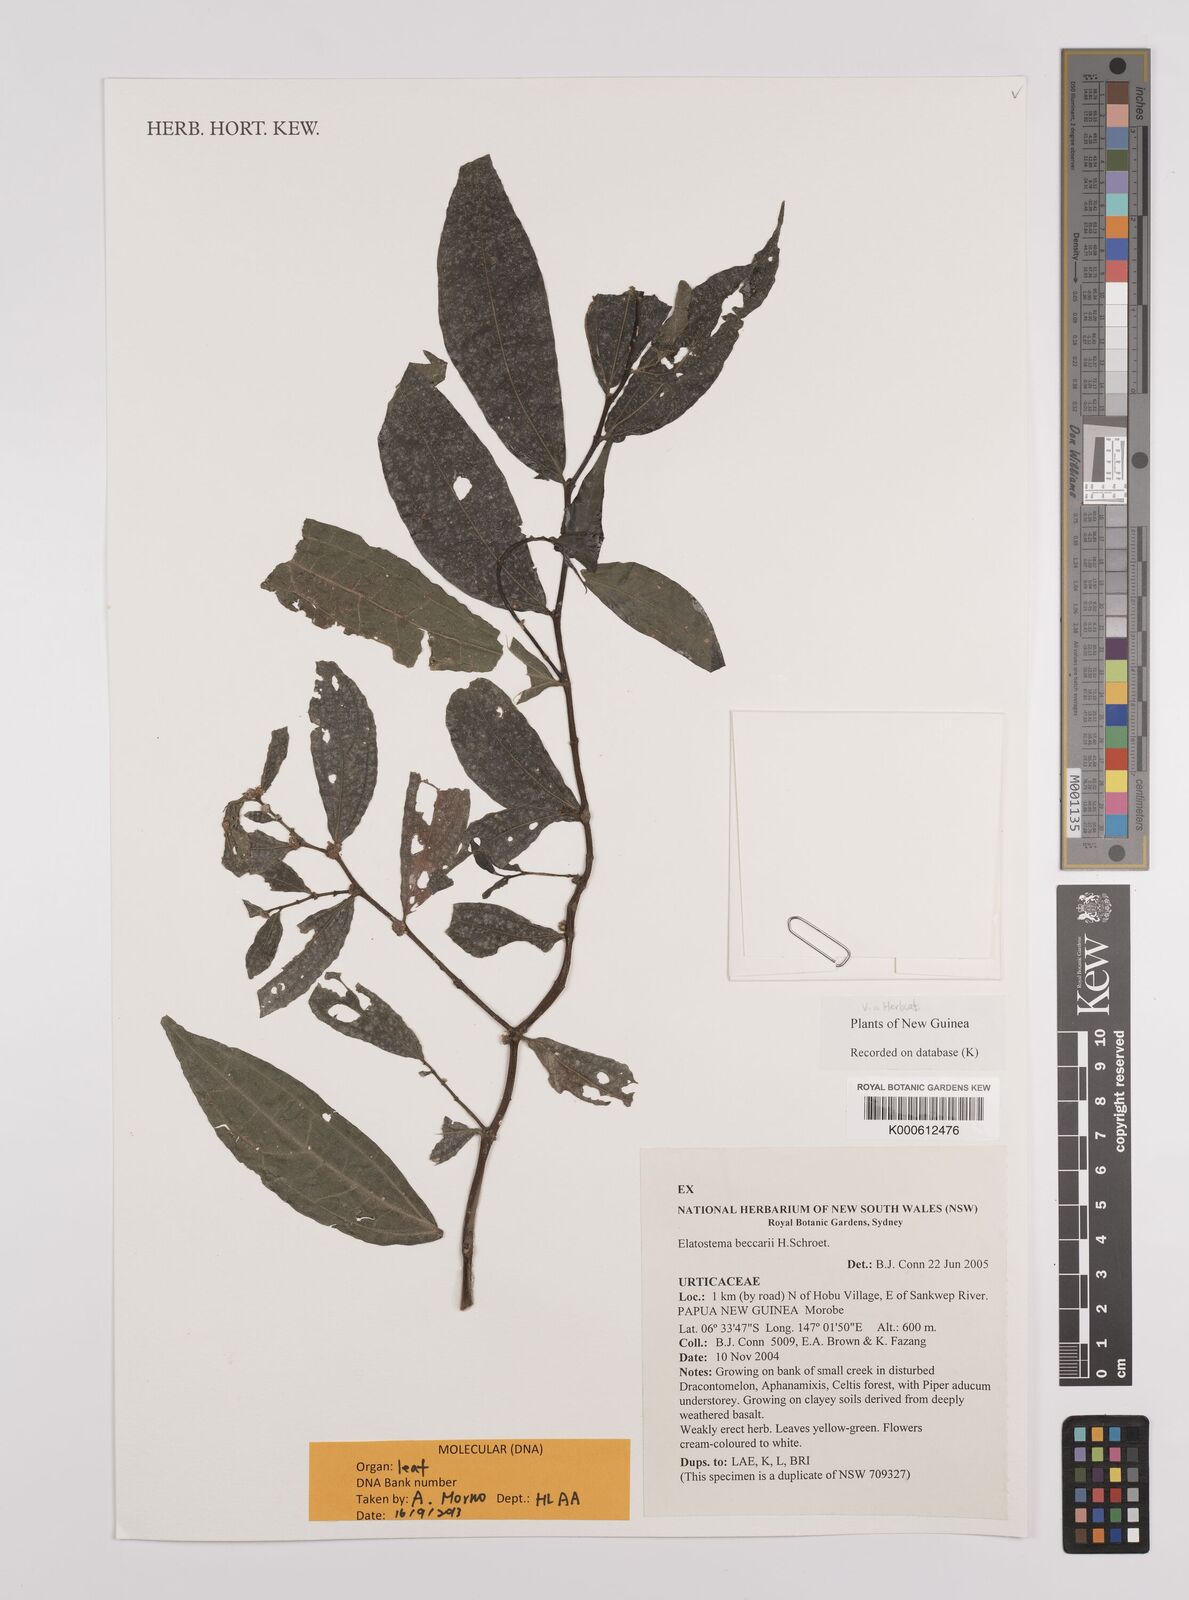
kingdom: Plantae
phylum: Tracheophyta
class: Magnoliopsida
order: Rosales
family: Urticaceae
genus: Elatostema
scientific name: Elatostema beccarii
